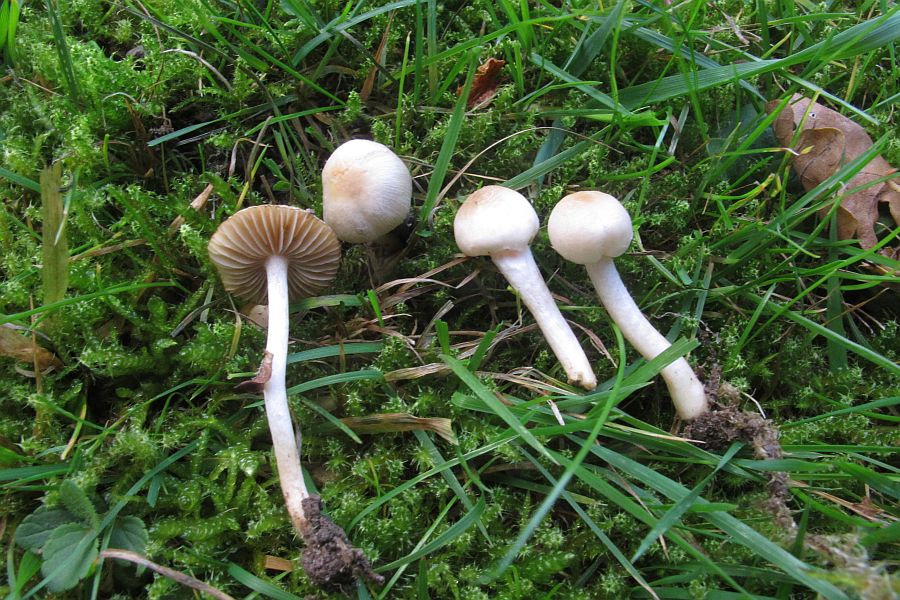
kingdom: Fungi
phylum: Basidiomycota
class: Agaricomycetes
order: Agaricales
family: Inocybaceae
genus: Inocybe
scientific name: Inocybe
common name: trævlhat
